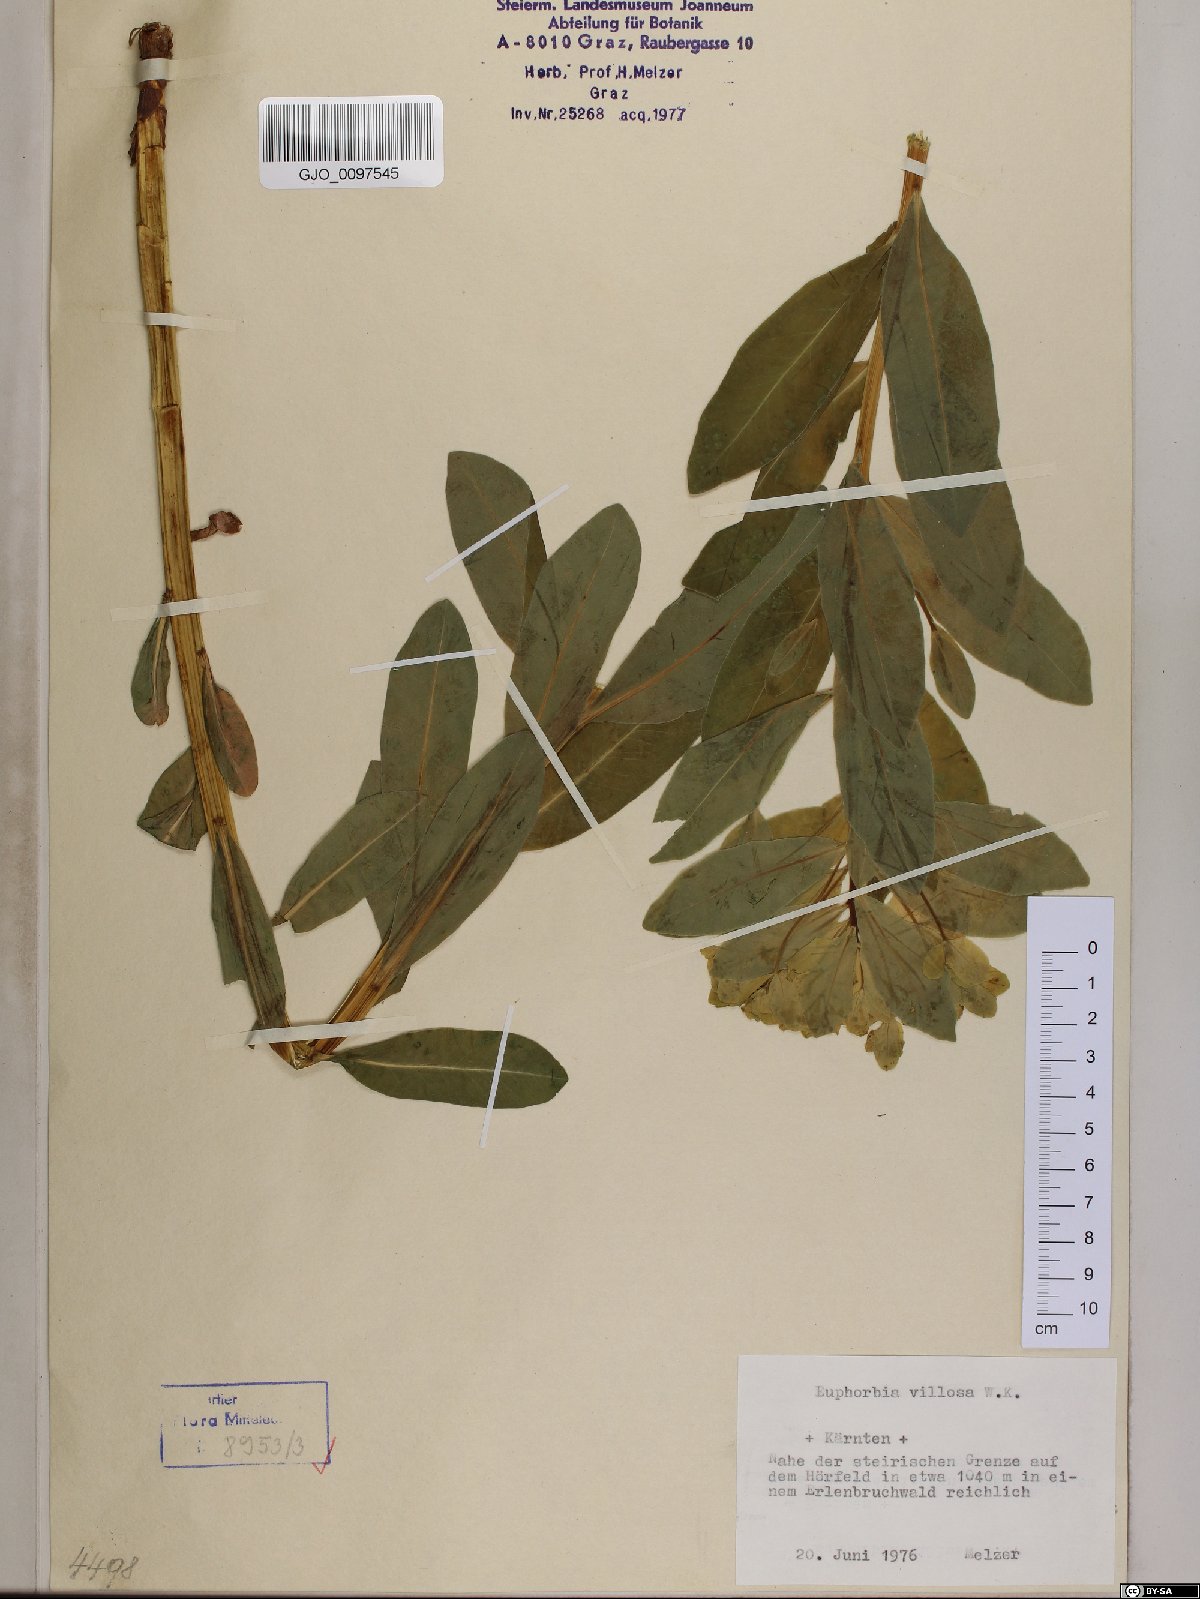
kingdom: Plantae
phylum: Tracheophyta
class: Magnoliopsida
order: Malpighiales
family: Euphorbiaceae
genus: Euphorbia
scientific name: Euphorbia illirica
